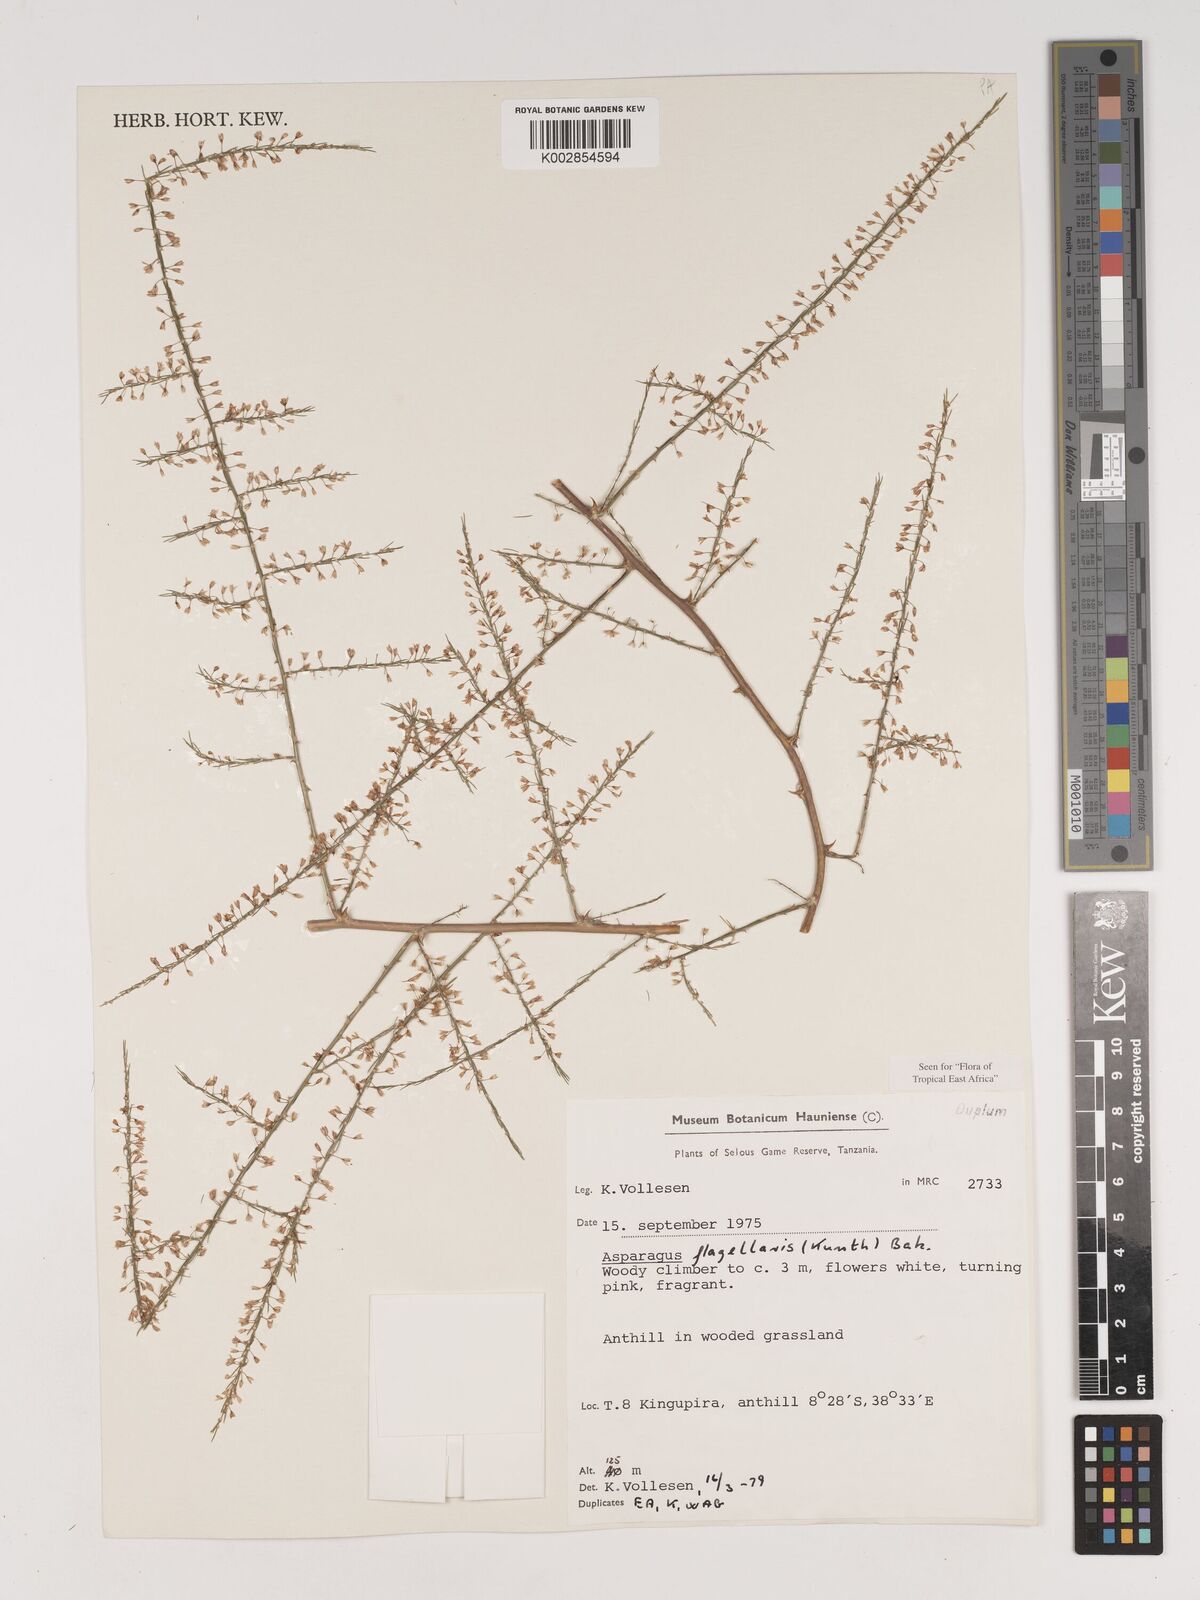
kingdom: Plantae
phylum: Tracheophyta
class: Liliopsida
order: Asparagales
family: Asparagaceae
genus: Asparagus
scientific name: Asparagus flagellaris
